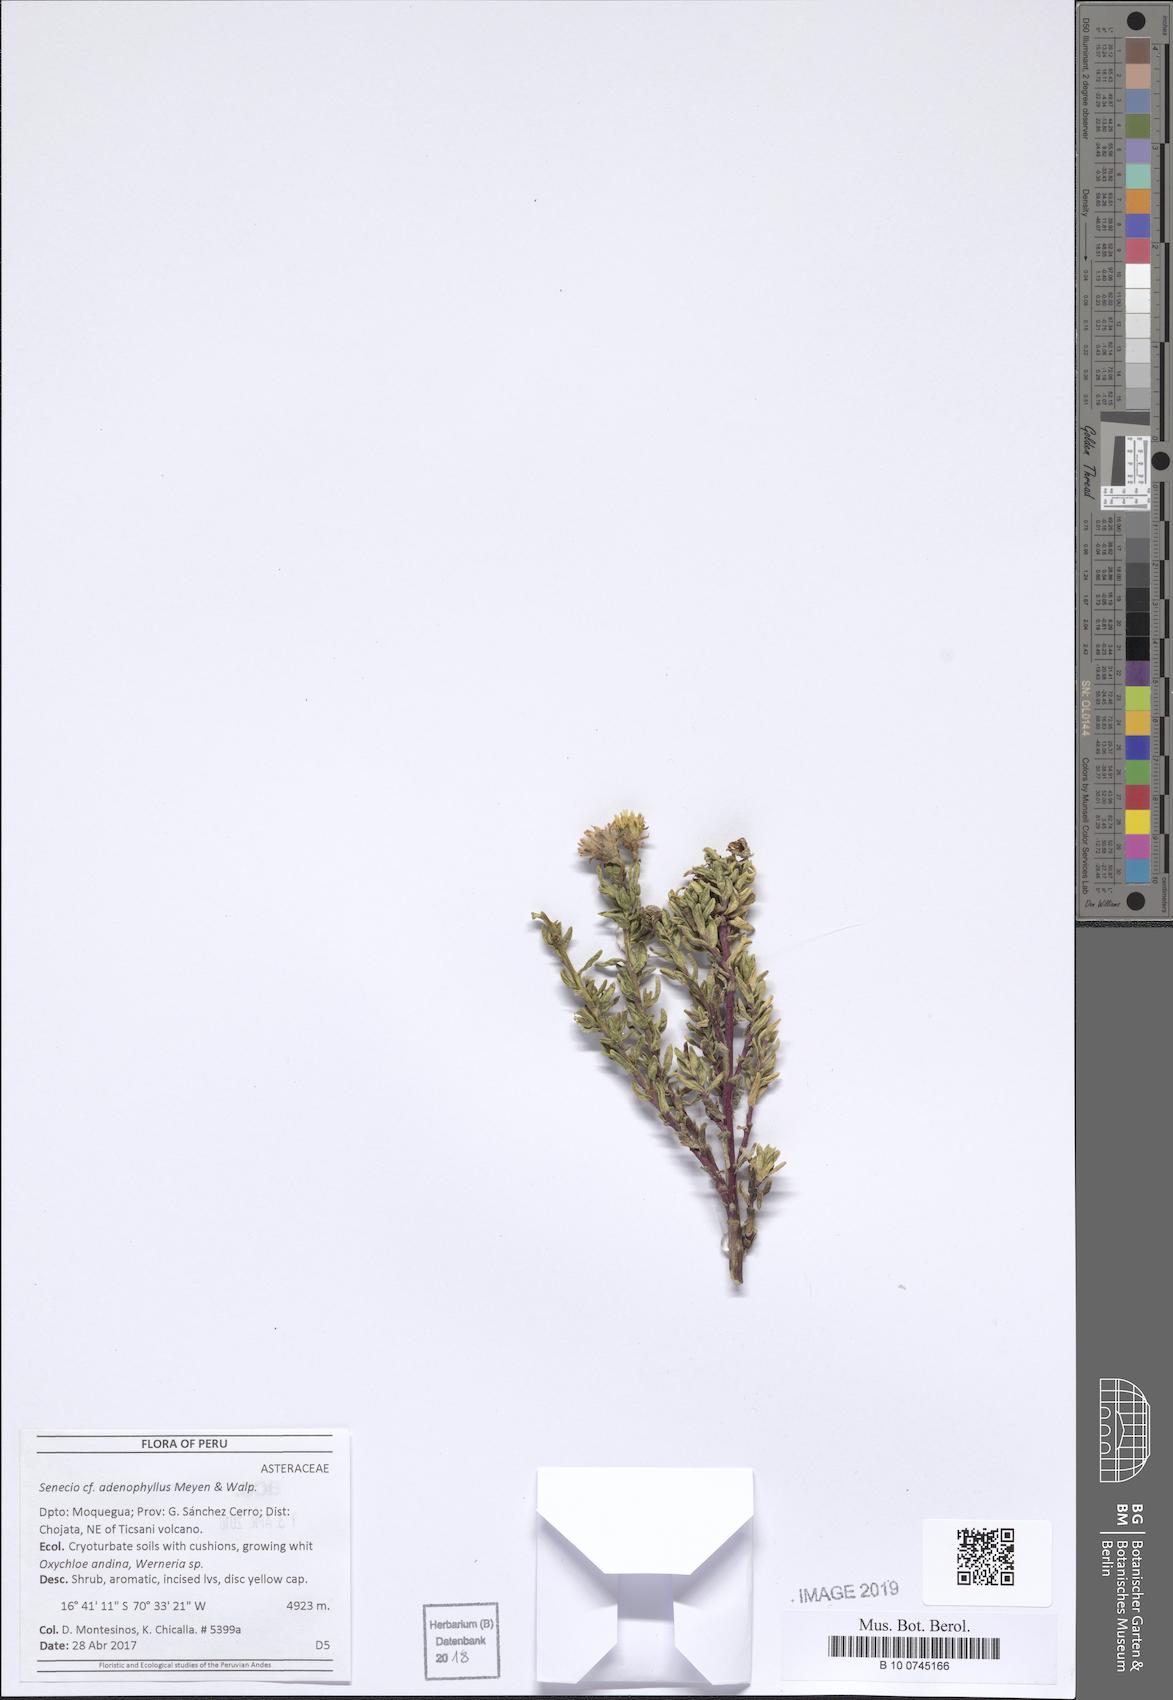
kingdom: Plantae
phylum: Tracheophyta
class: Magnoliopsida
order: Asterales
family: Asteraceae
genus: Senecio
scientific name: Senecio adenophyllus
